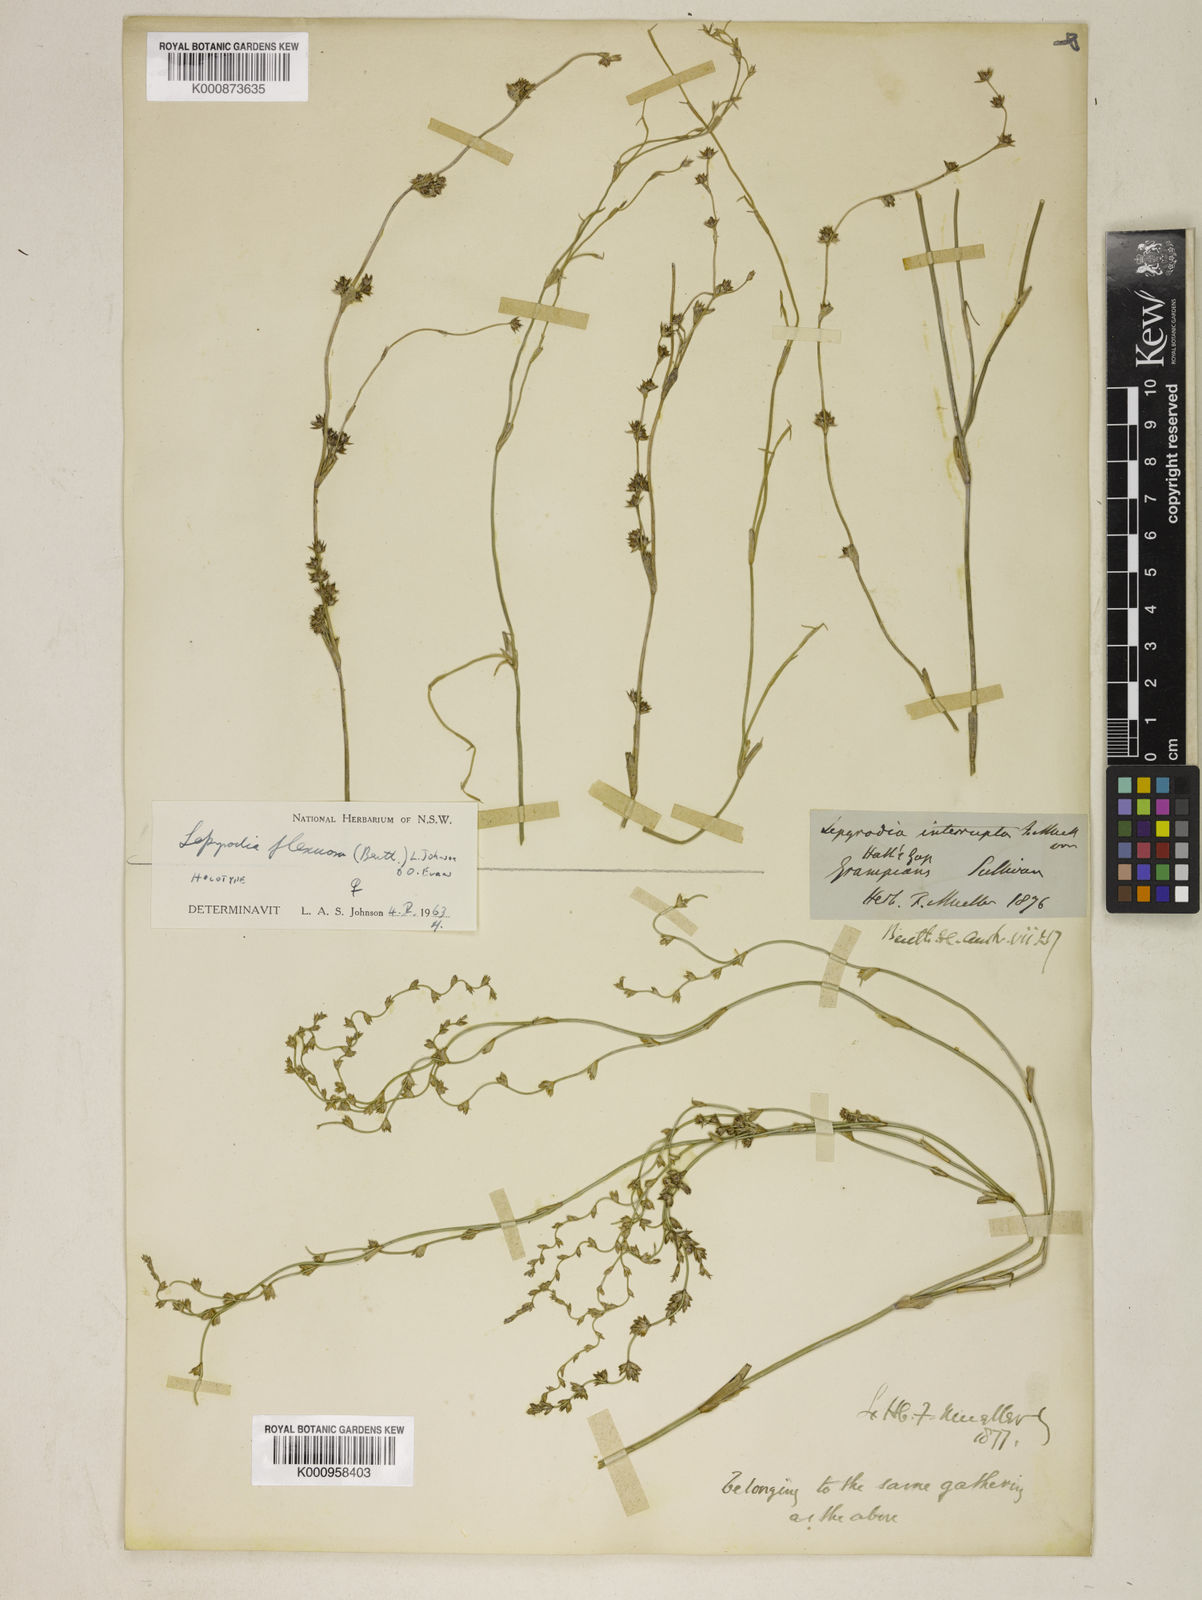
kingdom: Plantae
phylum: Tracheophyta
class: Liliopsida
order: Poales
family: Restionaceae
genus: Lepyrodia
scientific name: Lepyrodia flexuosa
